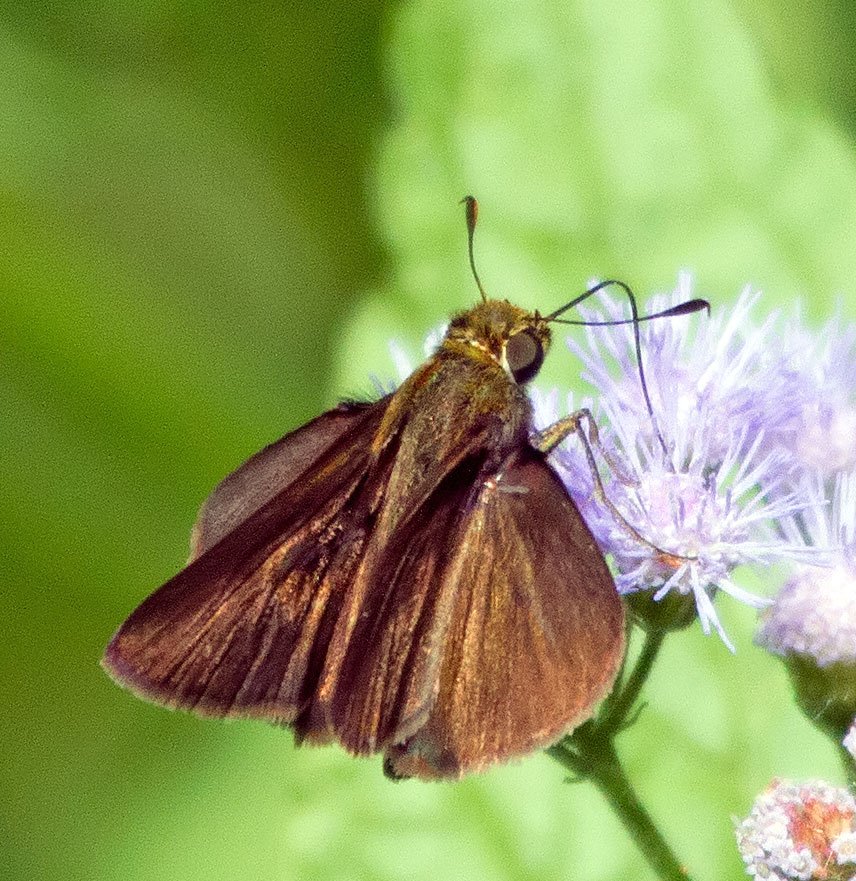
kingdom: Animalia
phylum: Arthropoda
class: Insecta
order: Lepidoptera
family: Hesperiidae
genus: Euphyes
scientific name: Euphyes vestris
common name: Dun Skipper
